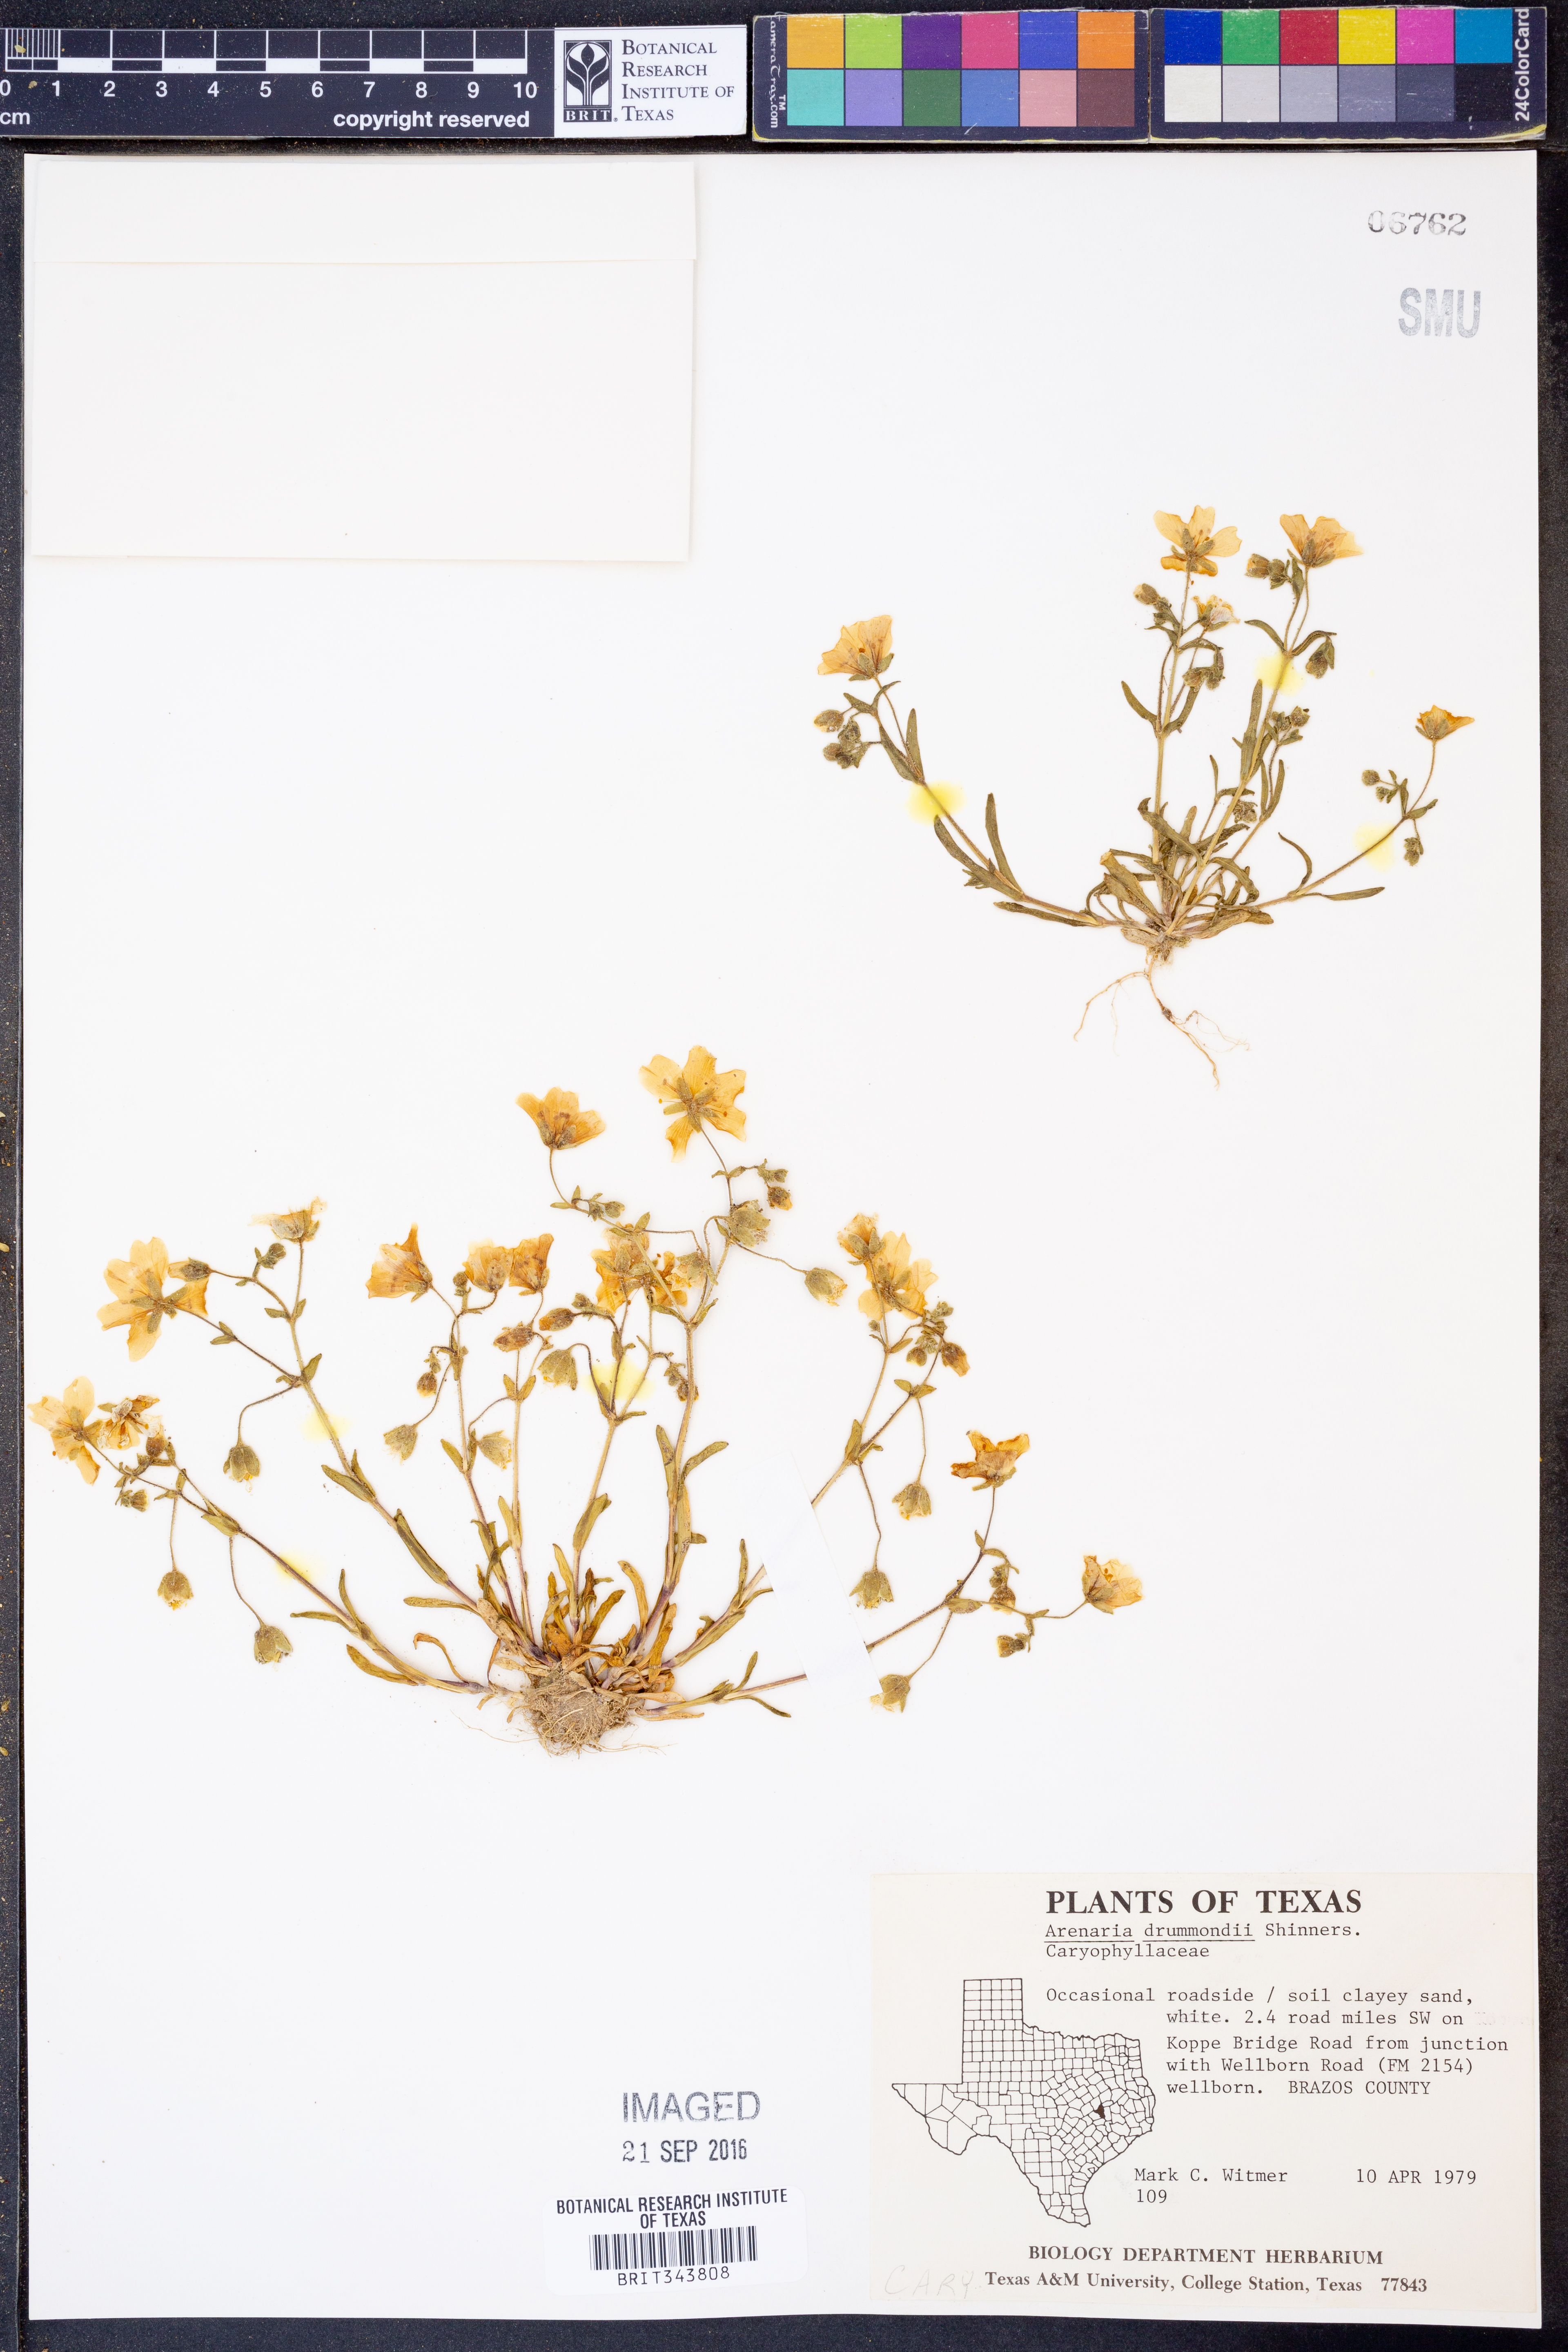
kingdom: Plantae
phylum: Tracheophyta
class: Magnoliopsida
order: Caryophyllales
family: Caryophyllaceae
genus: Geocarpon
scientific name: Geocarpon nuttallii
